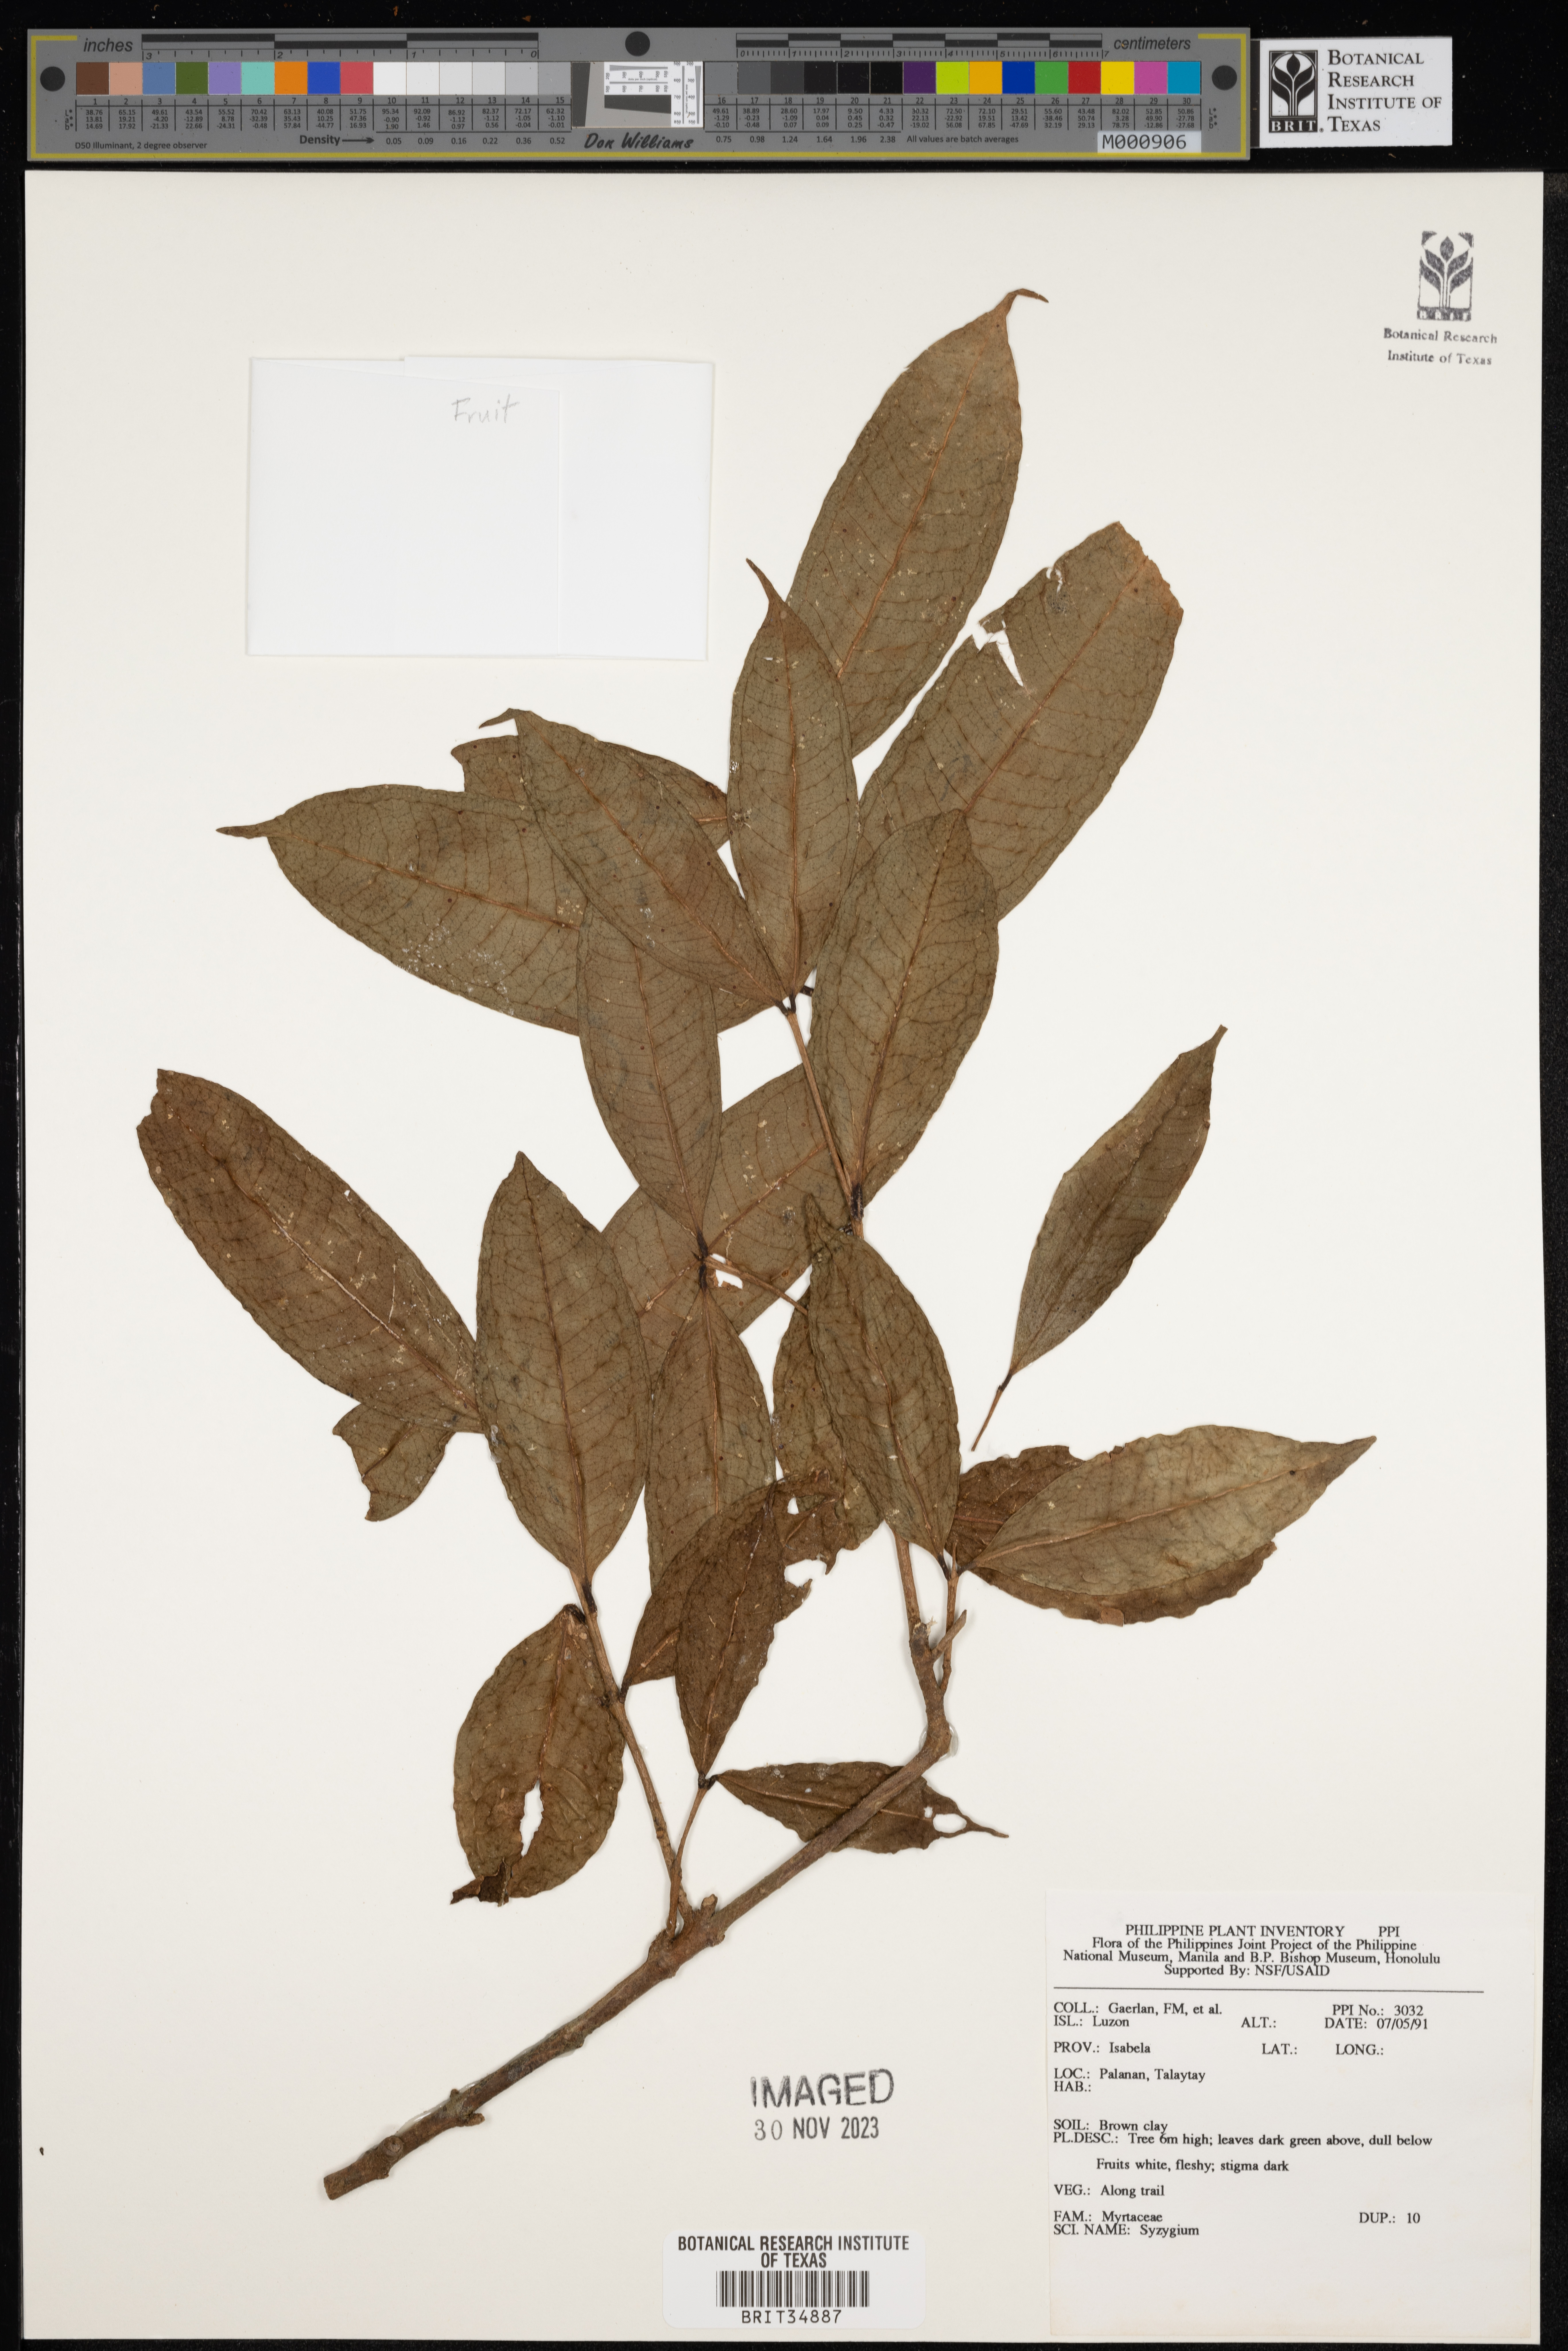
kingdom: Plantae
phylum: Tracheophyta
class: Magnoliopsida
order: Myrtales
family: Myrtaceae
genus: Syzygium
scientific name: Syzygium
